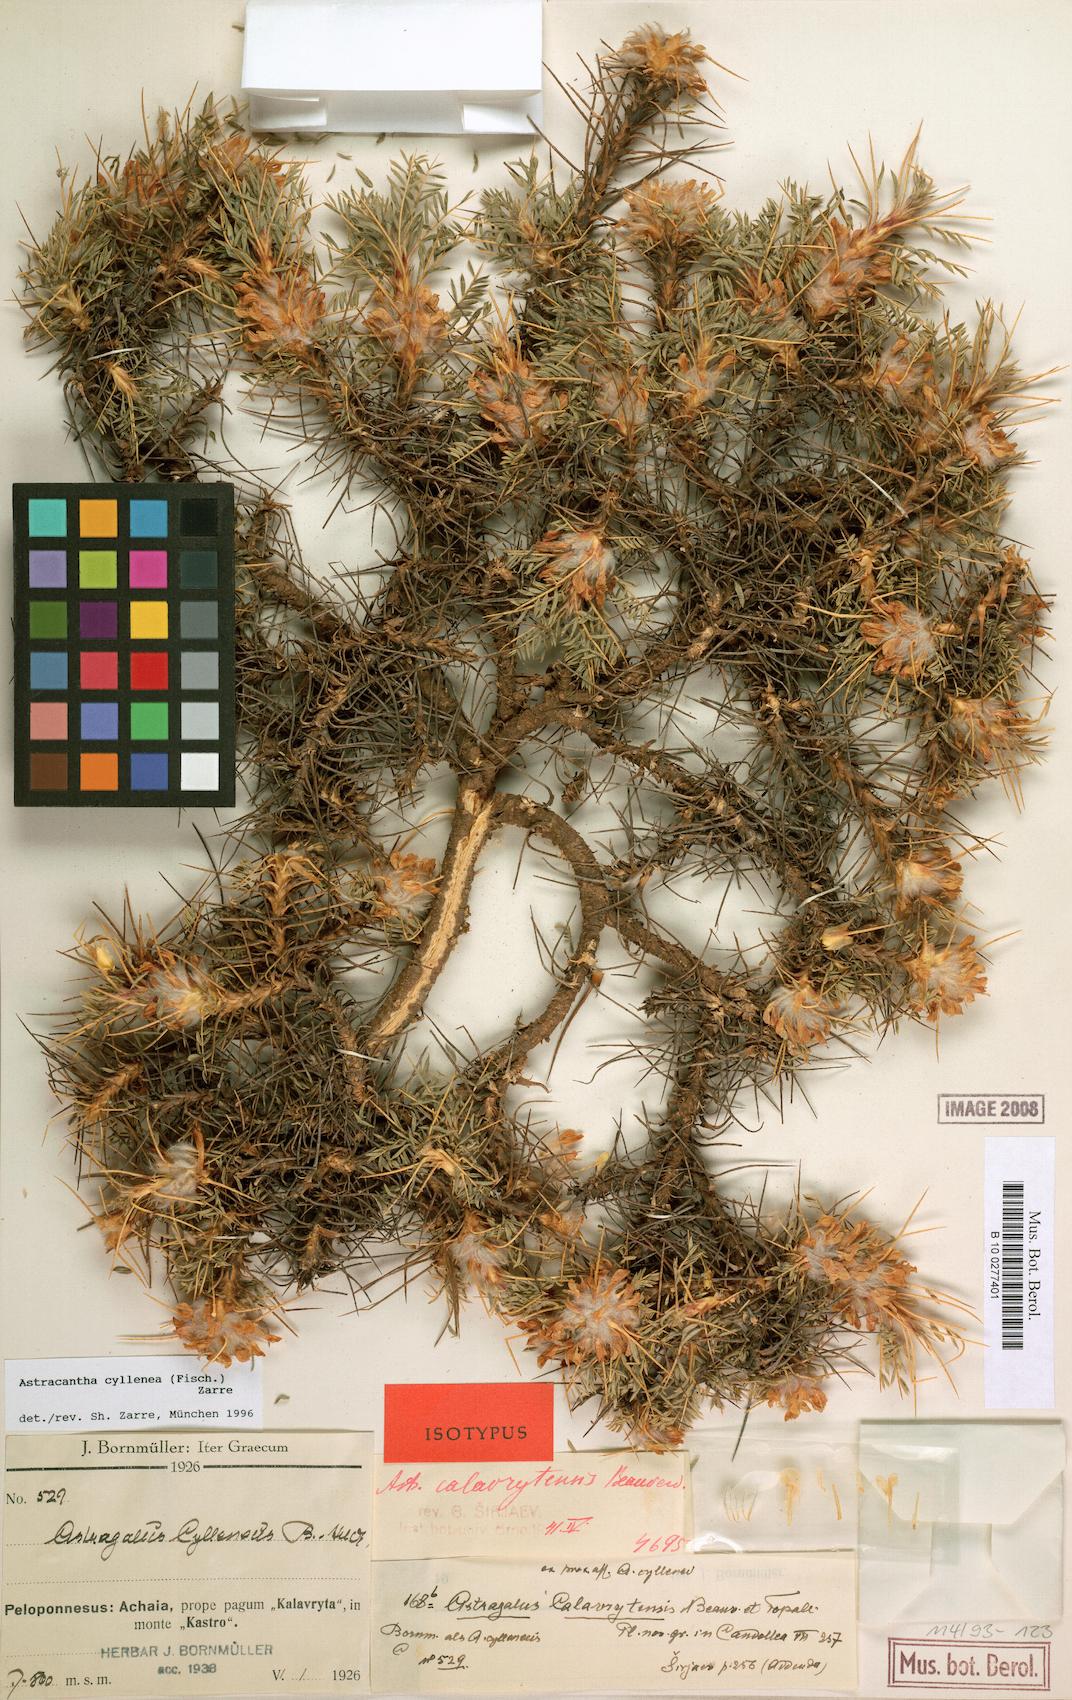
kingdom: Chromista
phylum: Cercozoa
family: Astracanthidae
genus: Astracantha
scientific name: Astracantha
